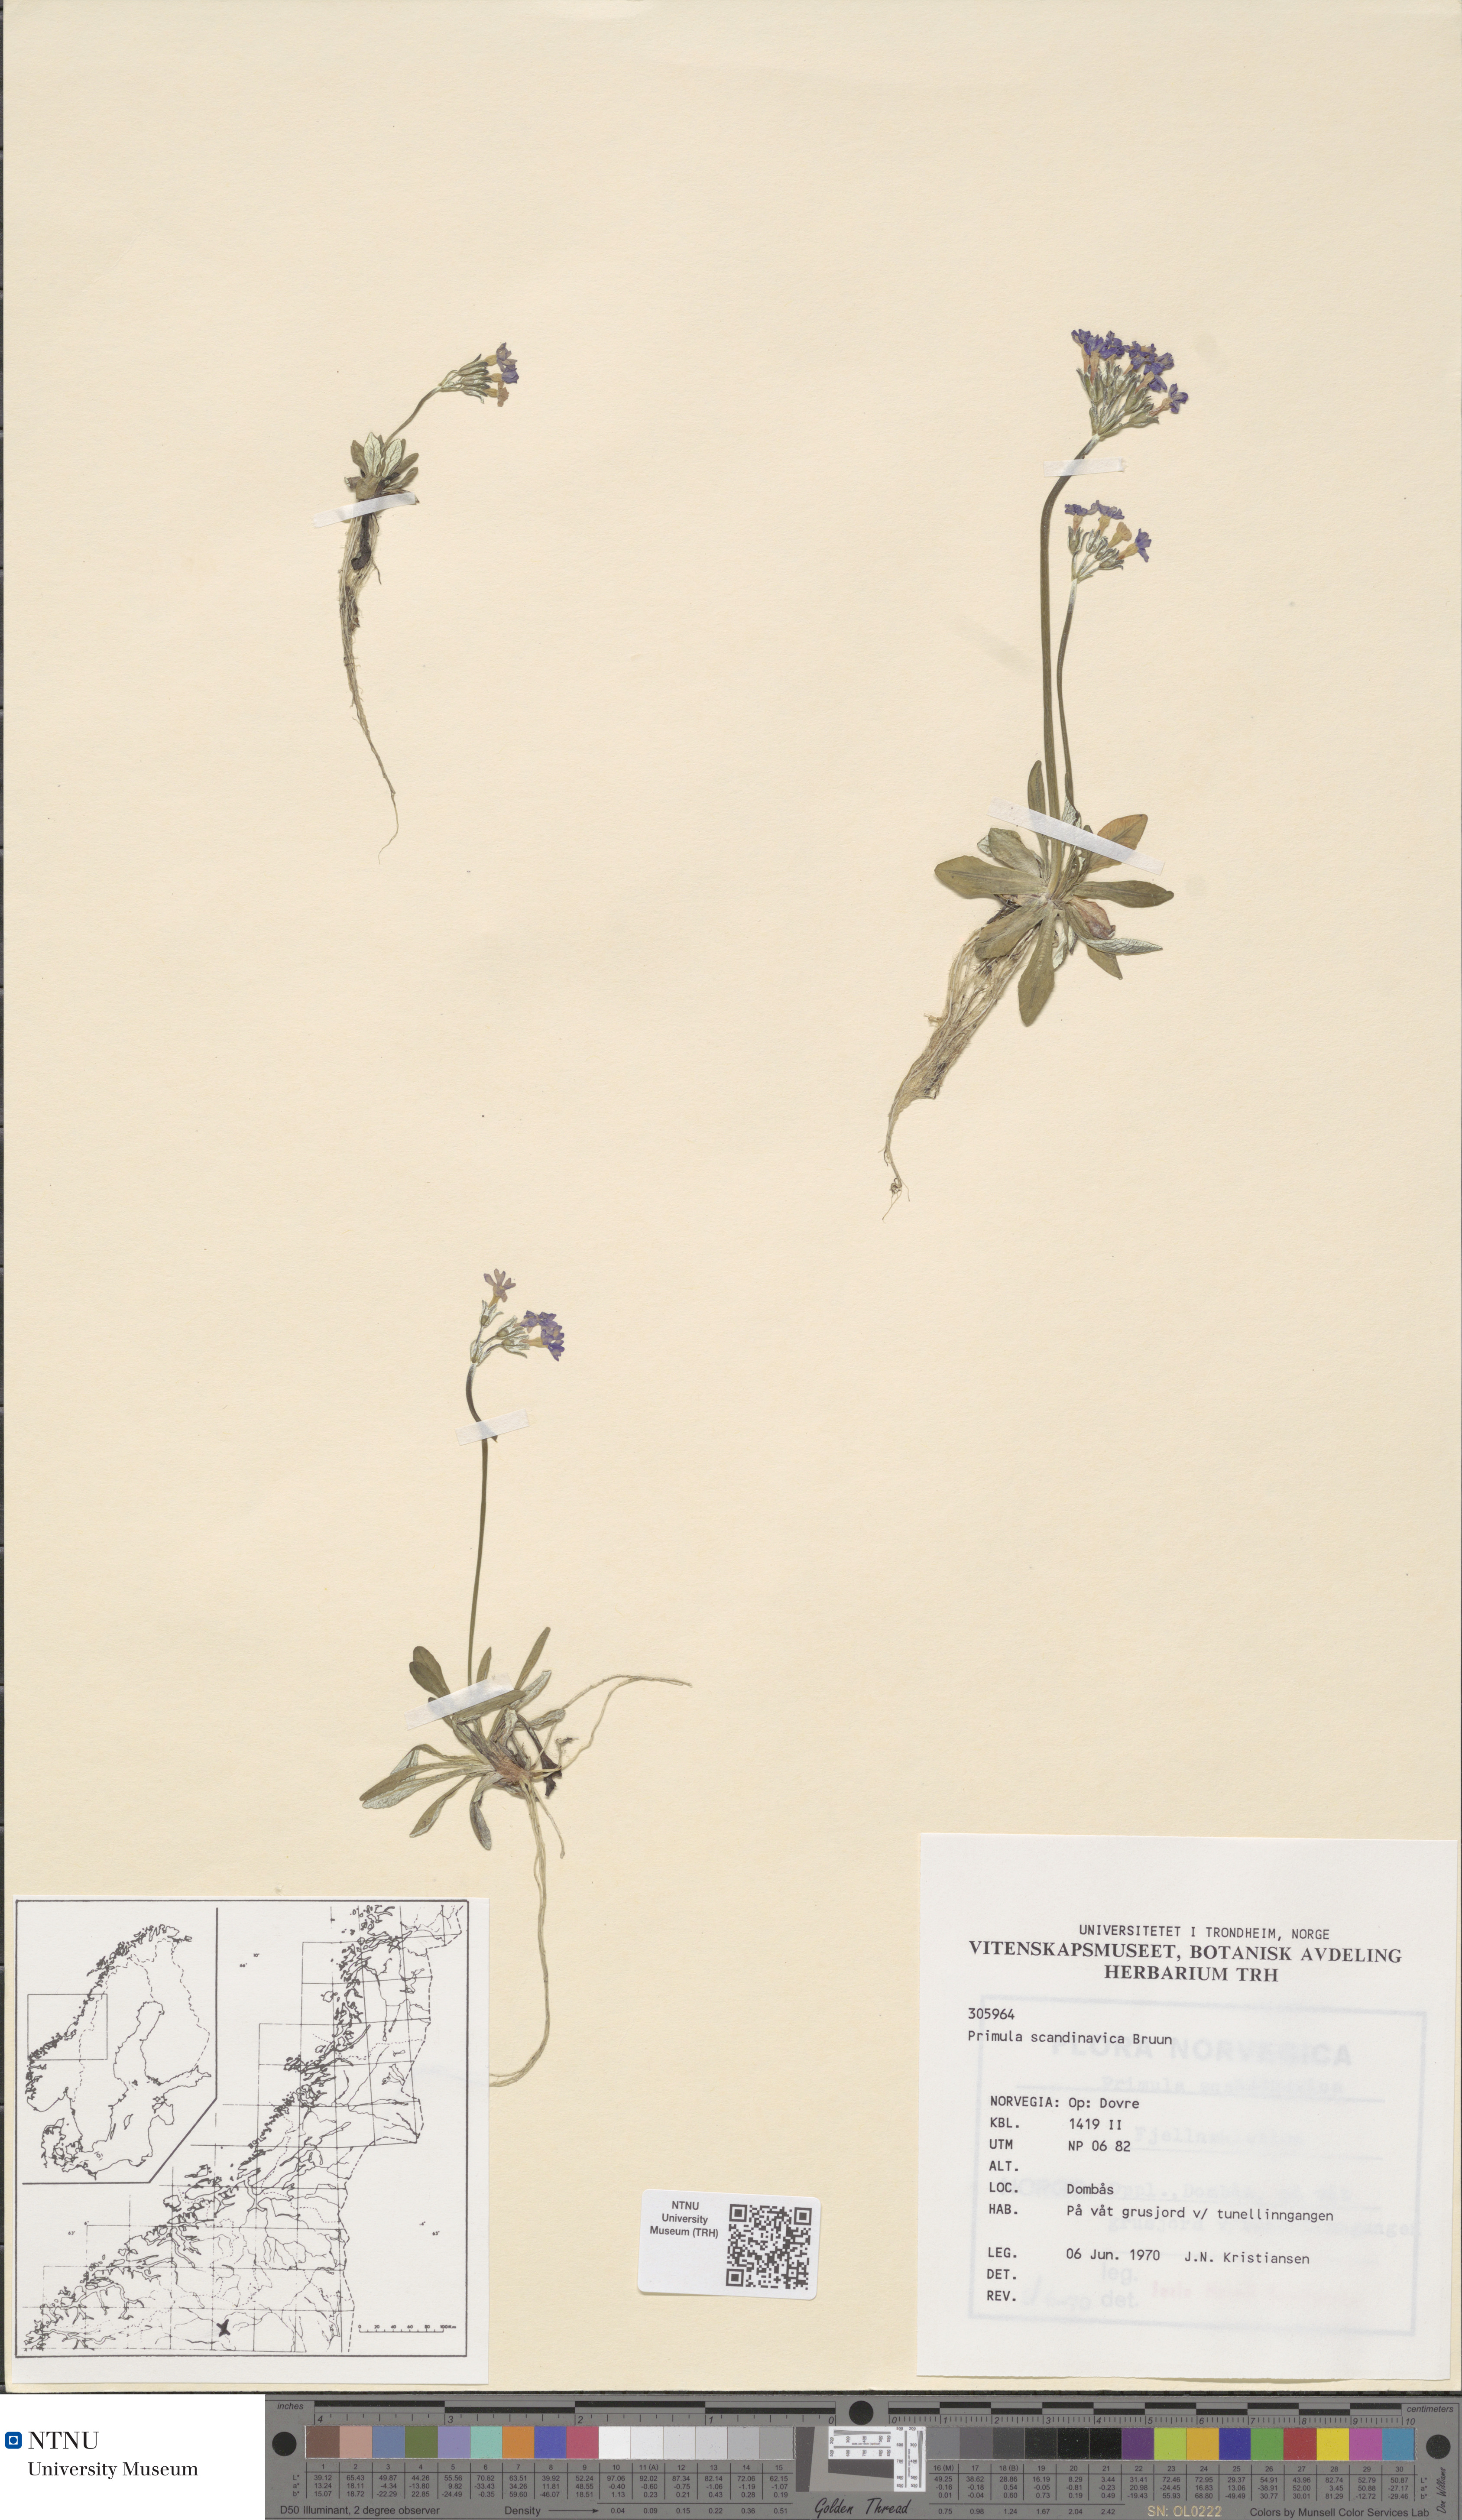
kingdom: Plantae
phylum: Tracheophyta
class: Magnoliopsida
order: Ericales
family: Primulaceae
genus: Primula
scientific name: Primula scandinavica
